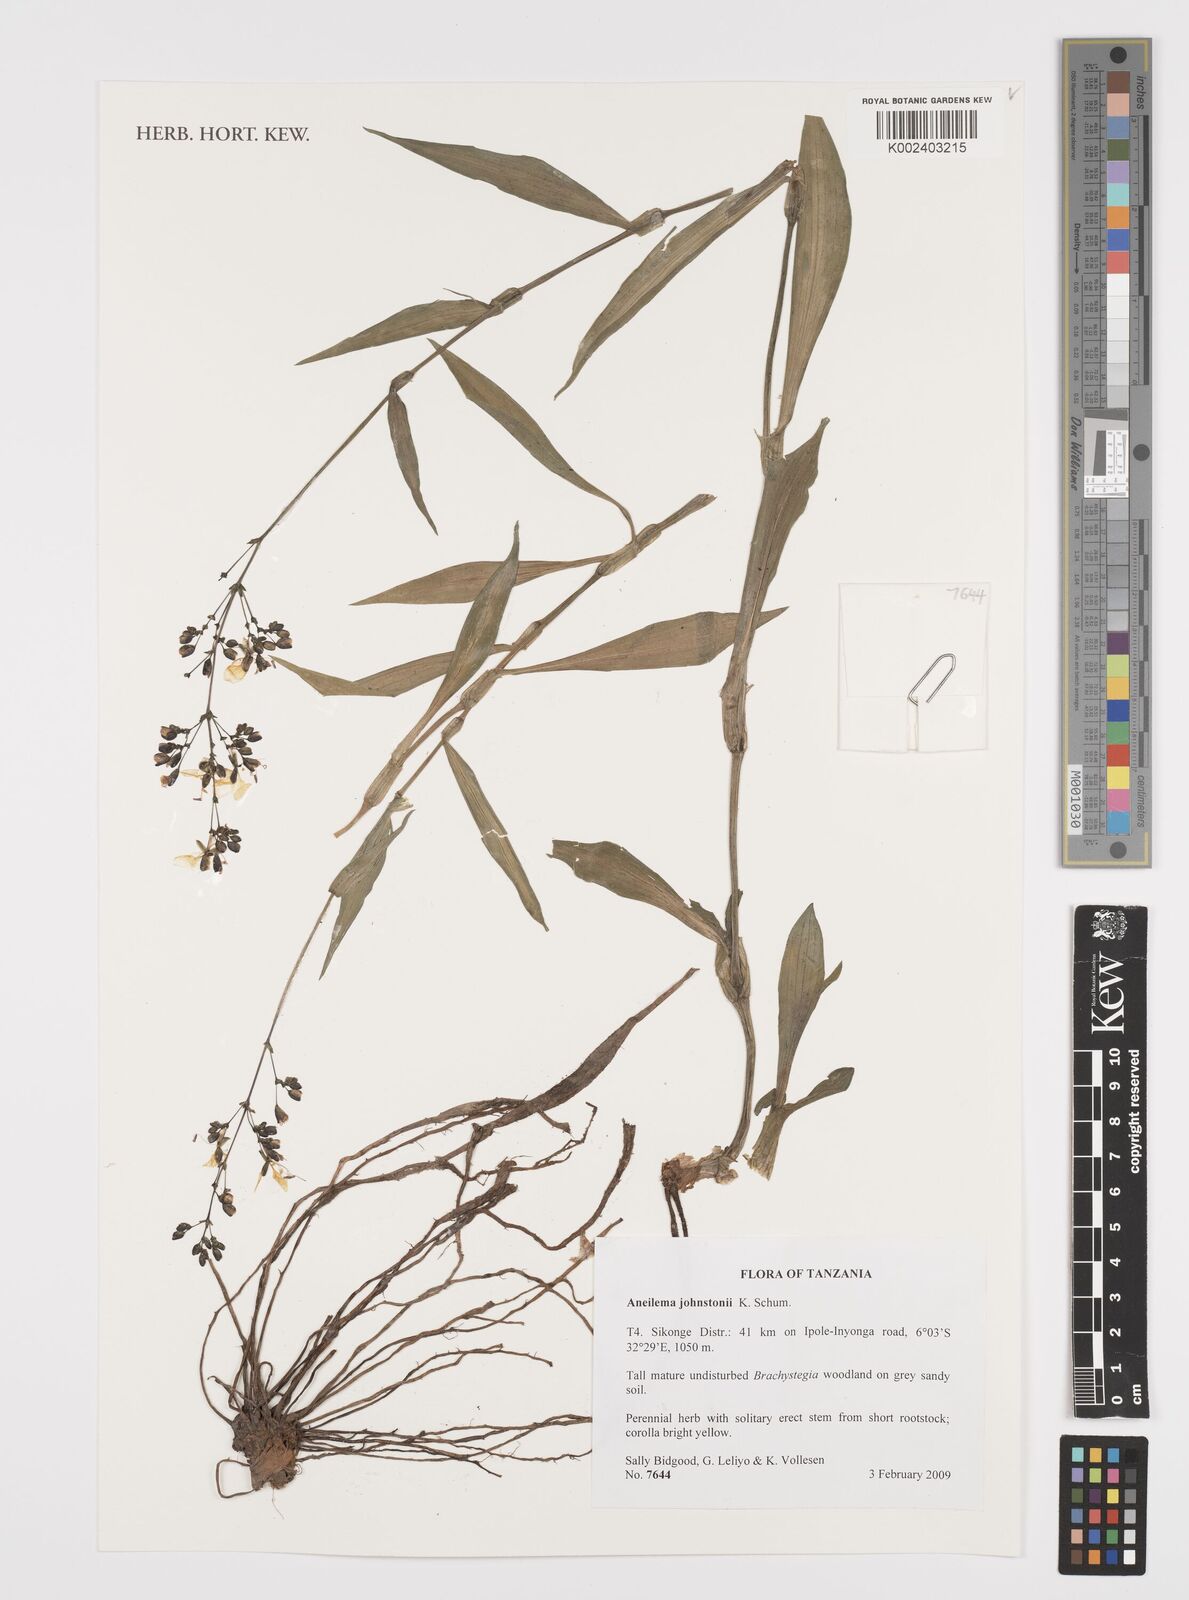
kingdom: Plantae
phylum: Tracheophyta
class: Liliopsida
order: Commelinales
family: Commelinaceae
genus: Aneilema
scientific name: Aneilema johnstonii
